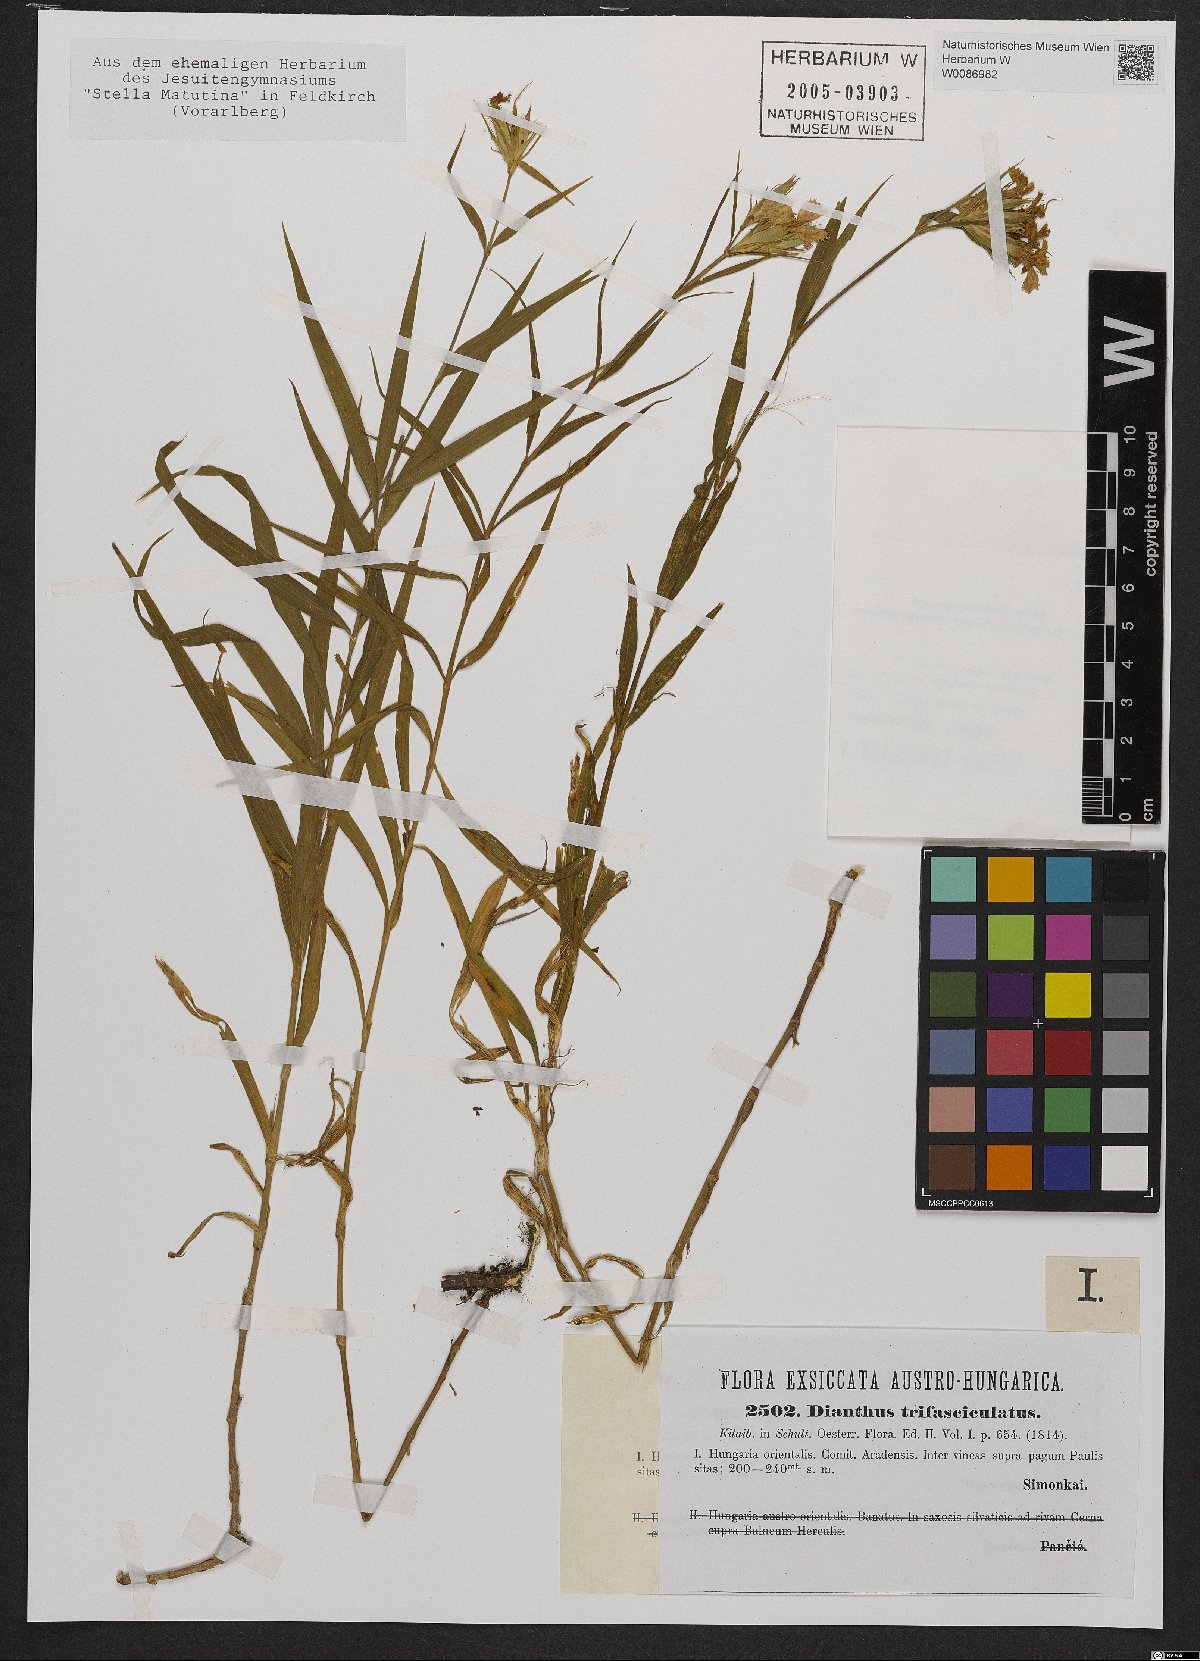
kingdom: Plantae
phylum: Tracheophyta
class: Magnoliopsida
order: Caryophyllales
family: Caryophyllaceae
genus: Dianthus
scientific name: Dianthus trifasciculatus
